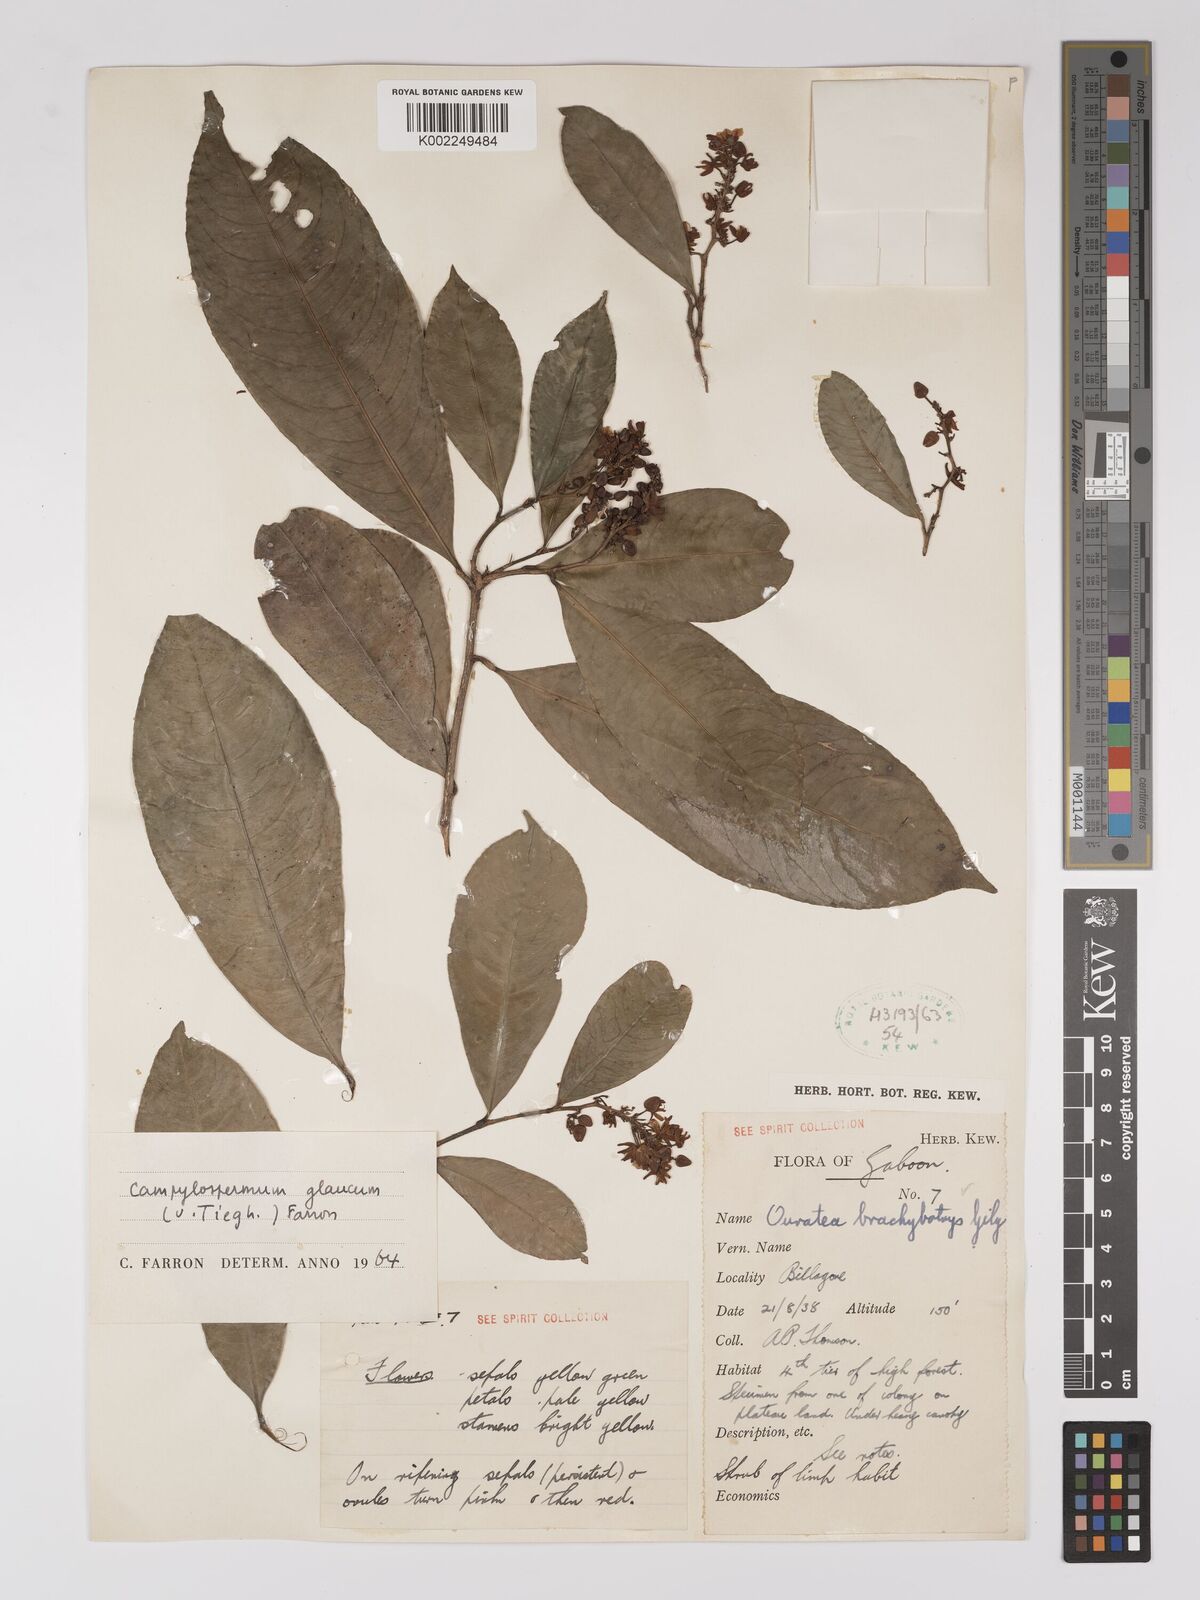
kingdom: Plantae
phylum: Tracheophyta
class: Magnoliopsida
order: Malpighiales
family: Ochnaceae
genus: Campylospermum
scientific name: Campylospermum glaucum
